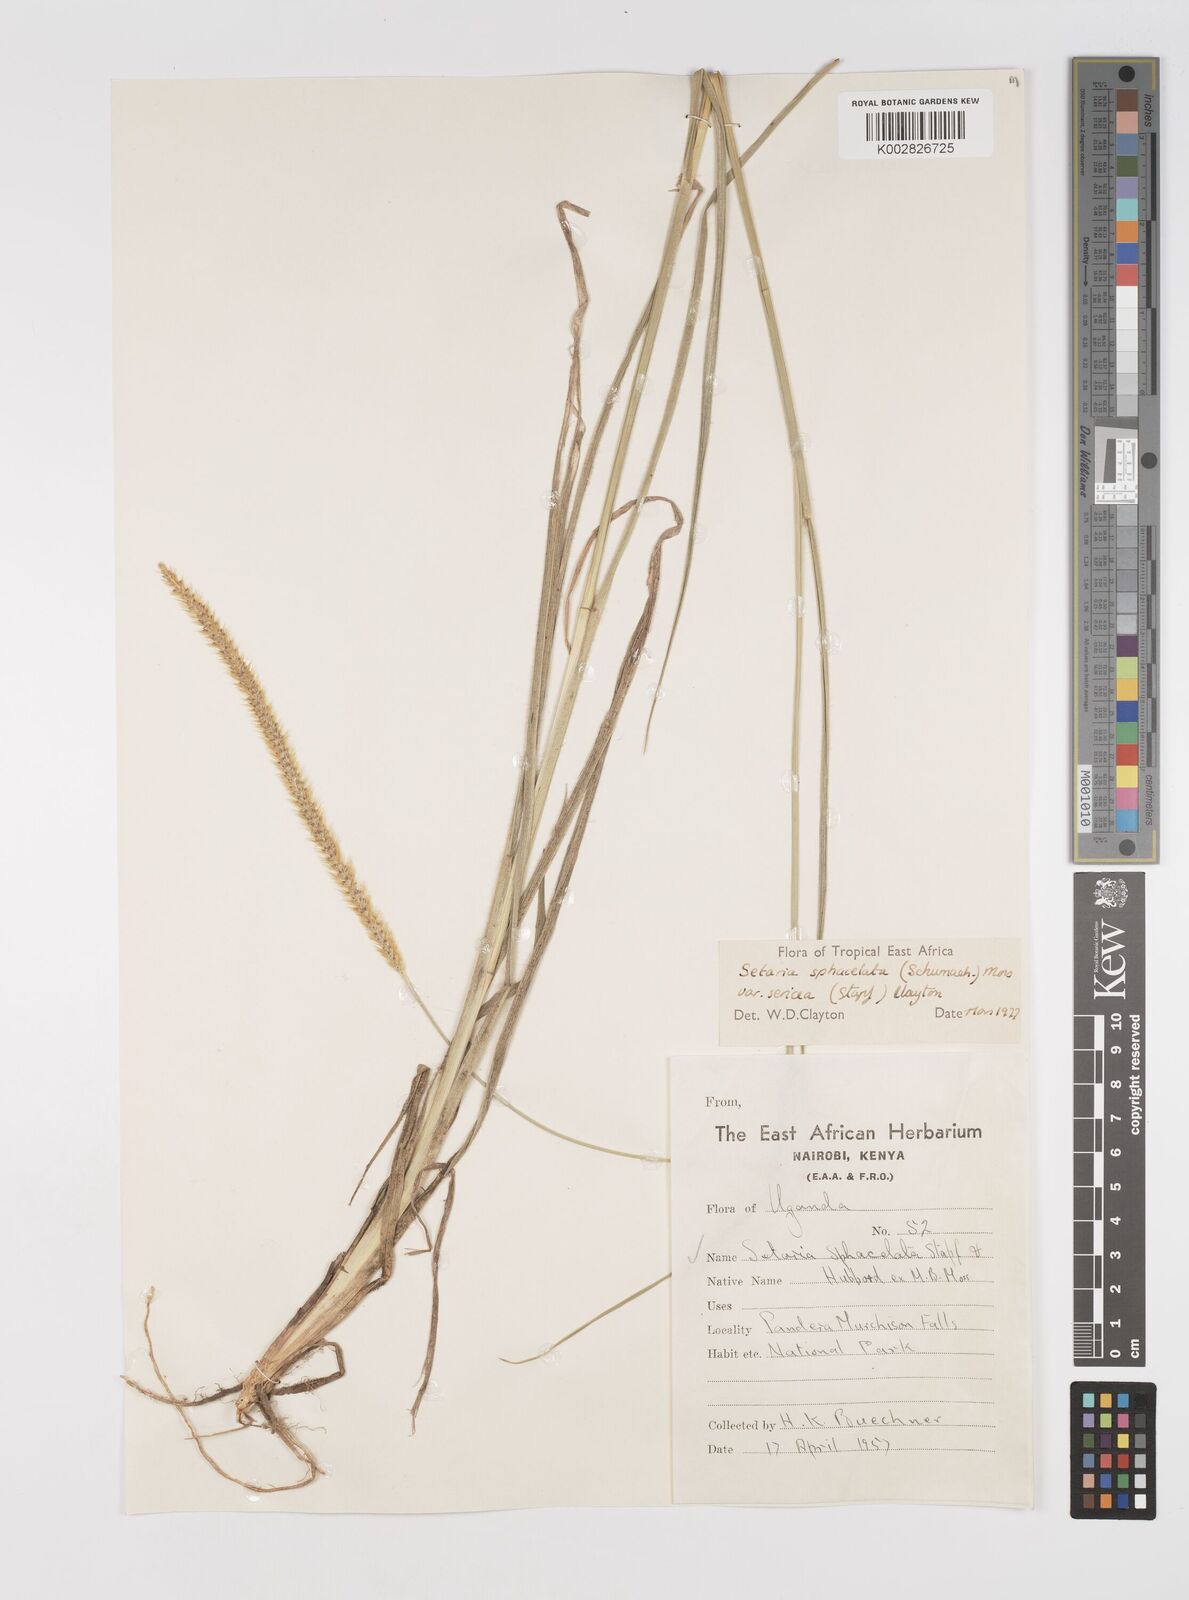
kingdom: Plantae
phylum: Tracheophyta
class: Liliopsida
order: Poales
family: Poaceae
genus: Setaria
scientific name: Setaria sphacelata
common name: African bristlegrass
